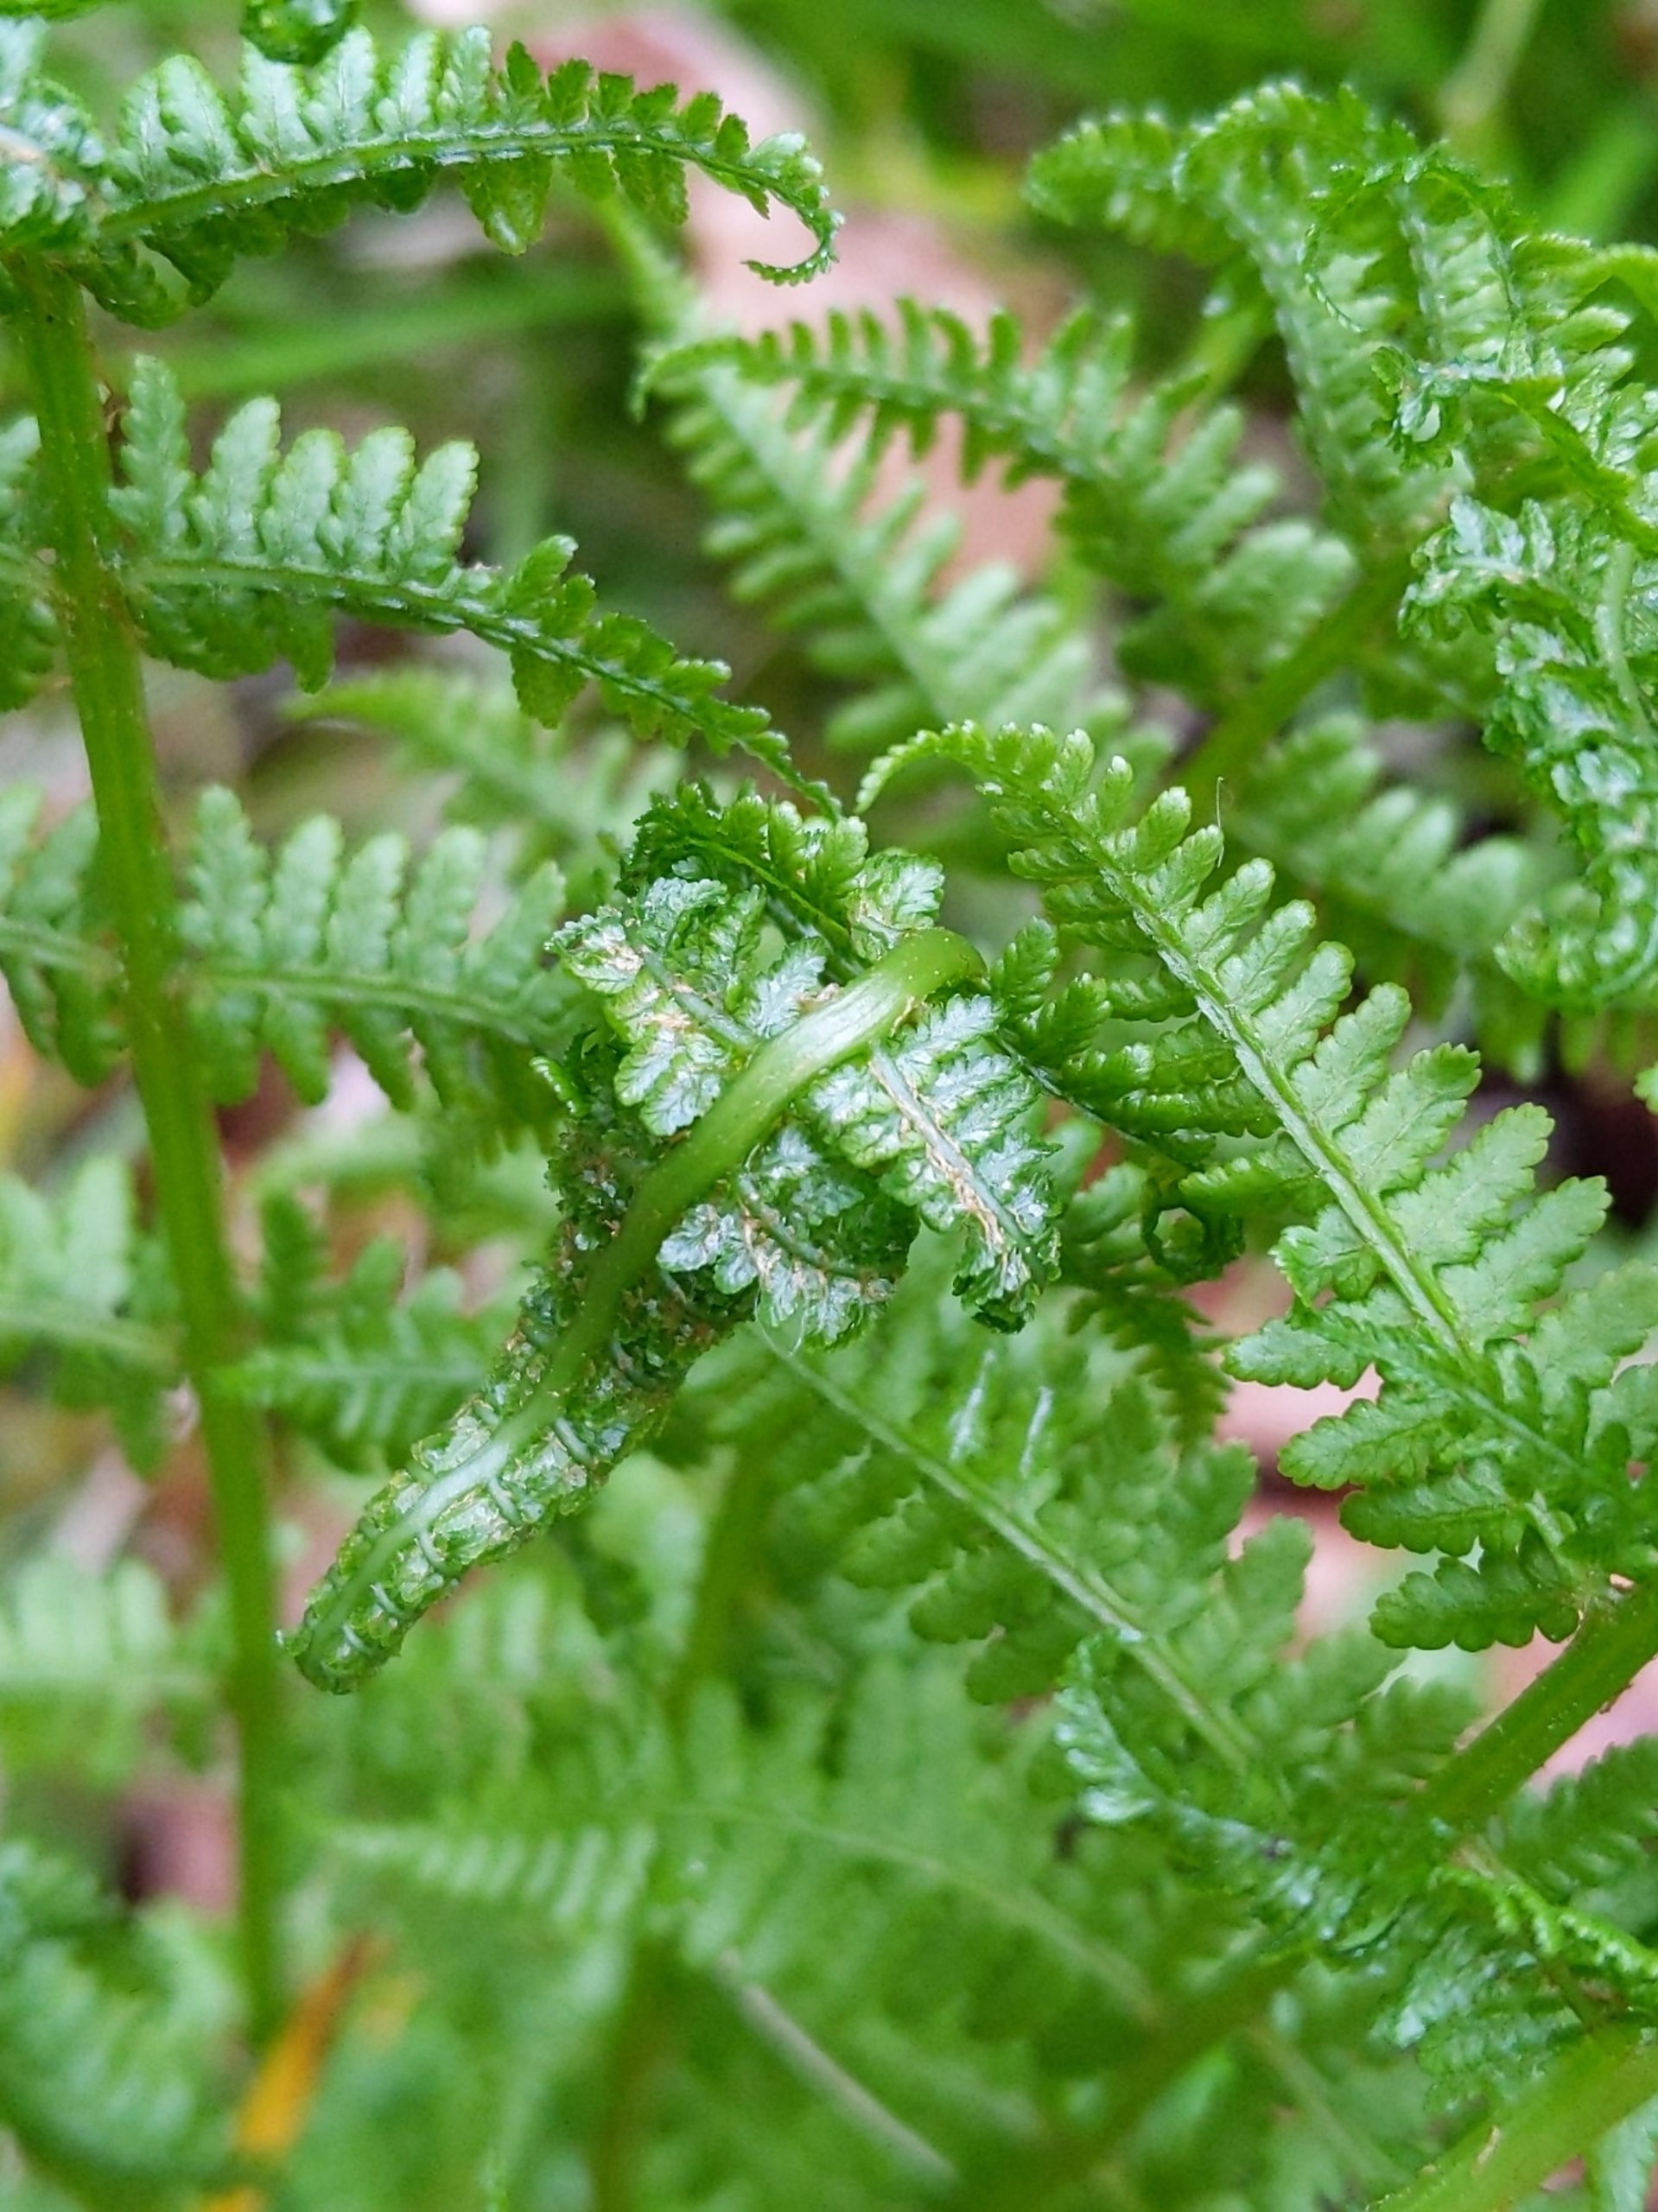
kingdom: Plantae
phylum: Tracheophyta
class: Polypodiopsida
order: Polypodiales
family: Athyriaceae
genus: Athyrium
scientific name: Athyrium filix-femina
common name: Fjerbregne
